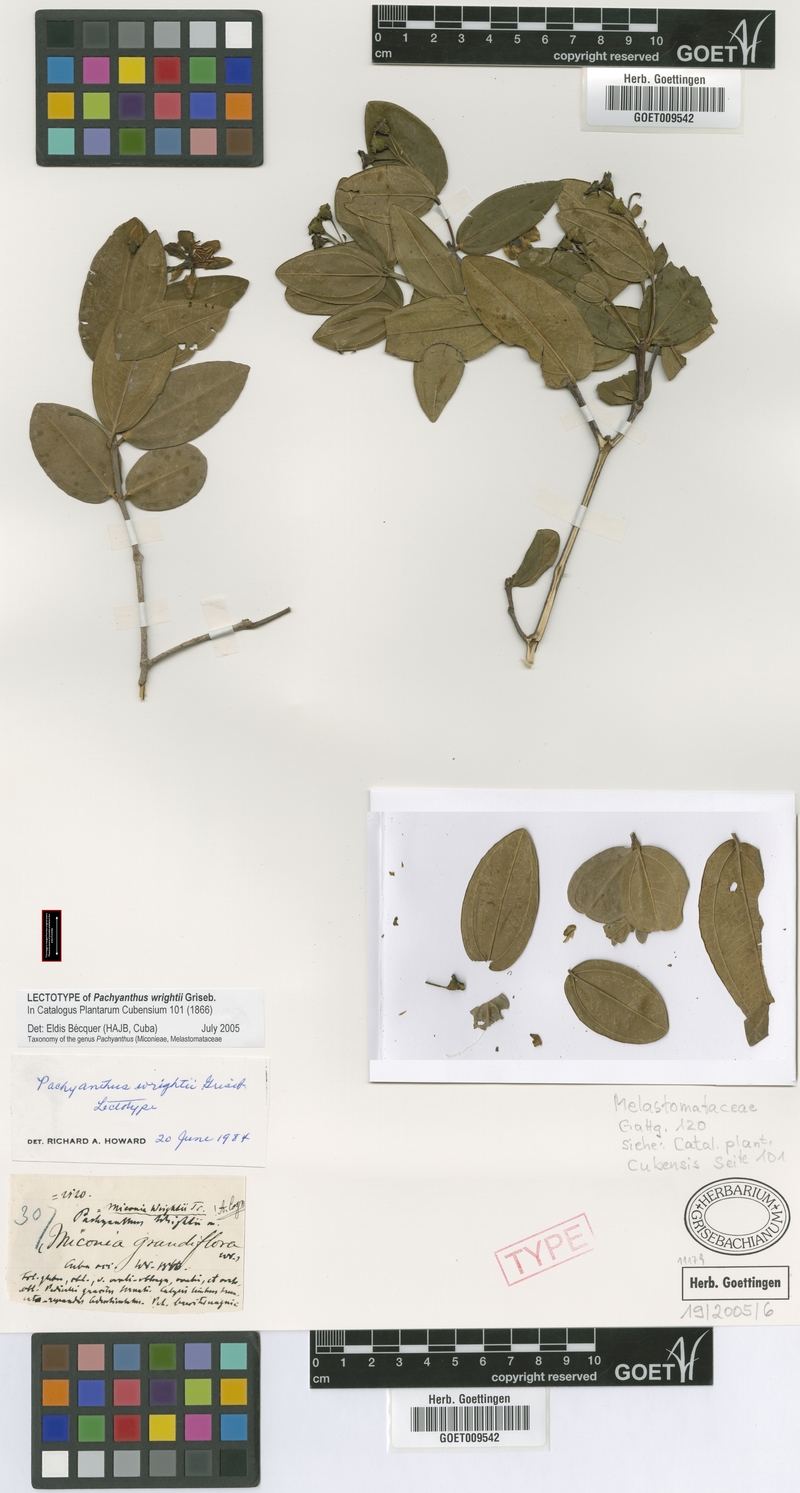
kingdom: Plantae
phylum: Tracheophyta
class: Magnoliopsida
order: Myrtales
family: Melastomataceae
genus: Miconia
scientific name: Miconia wrightii
